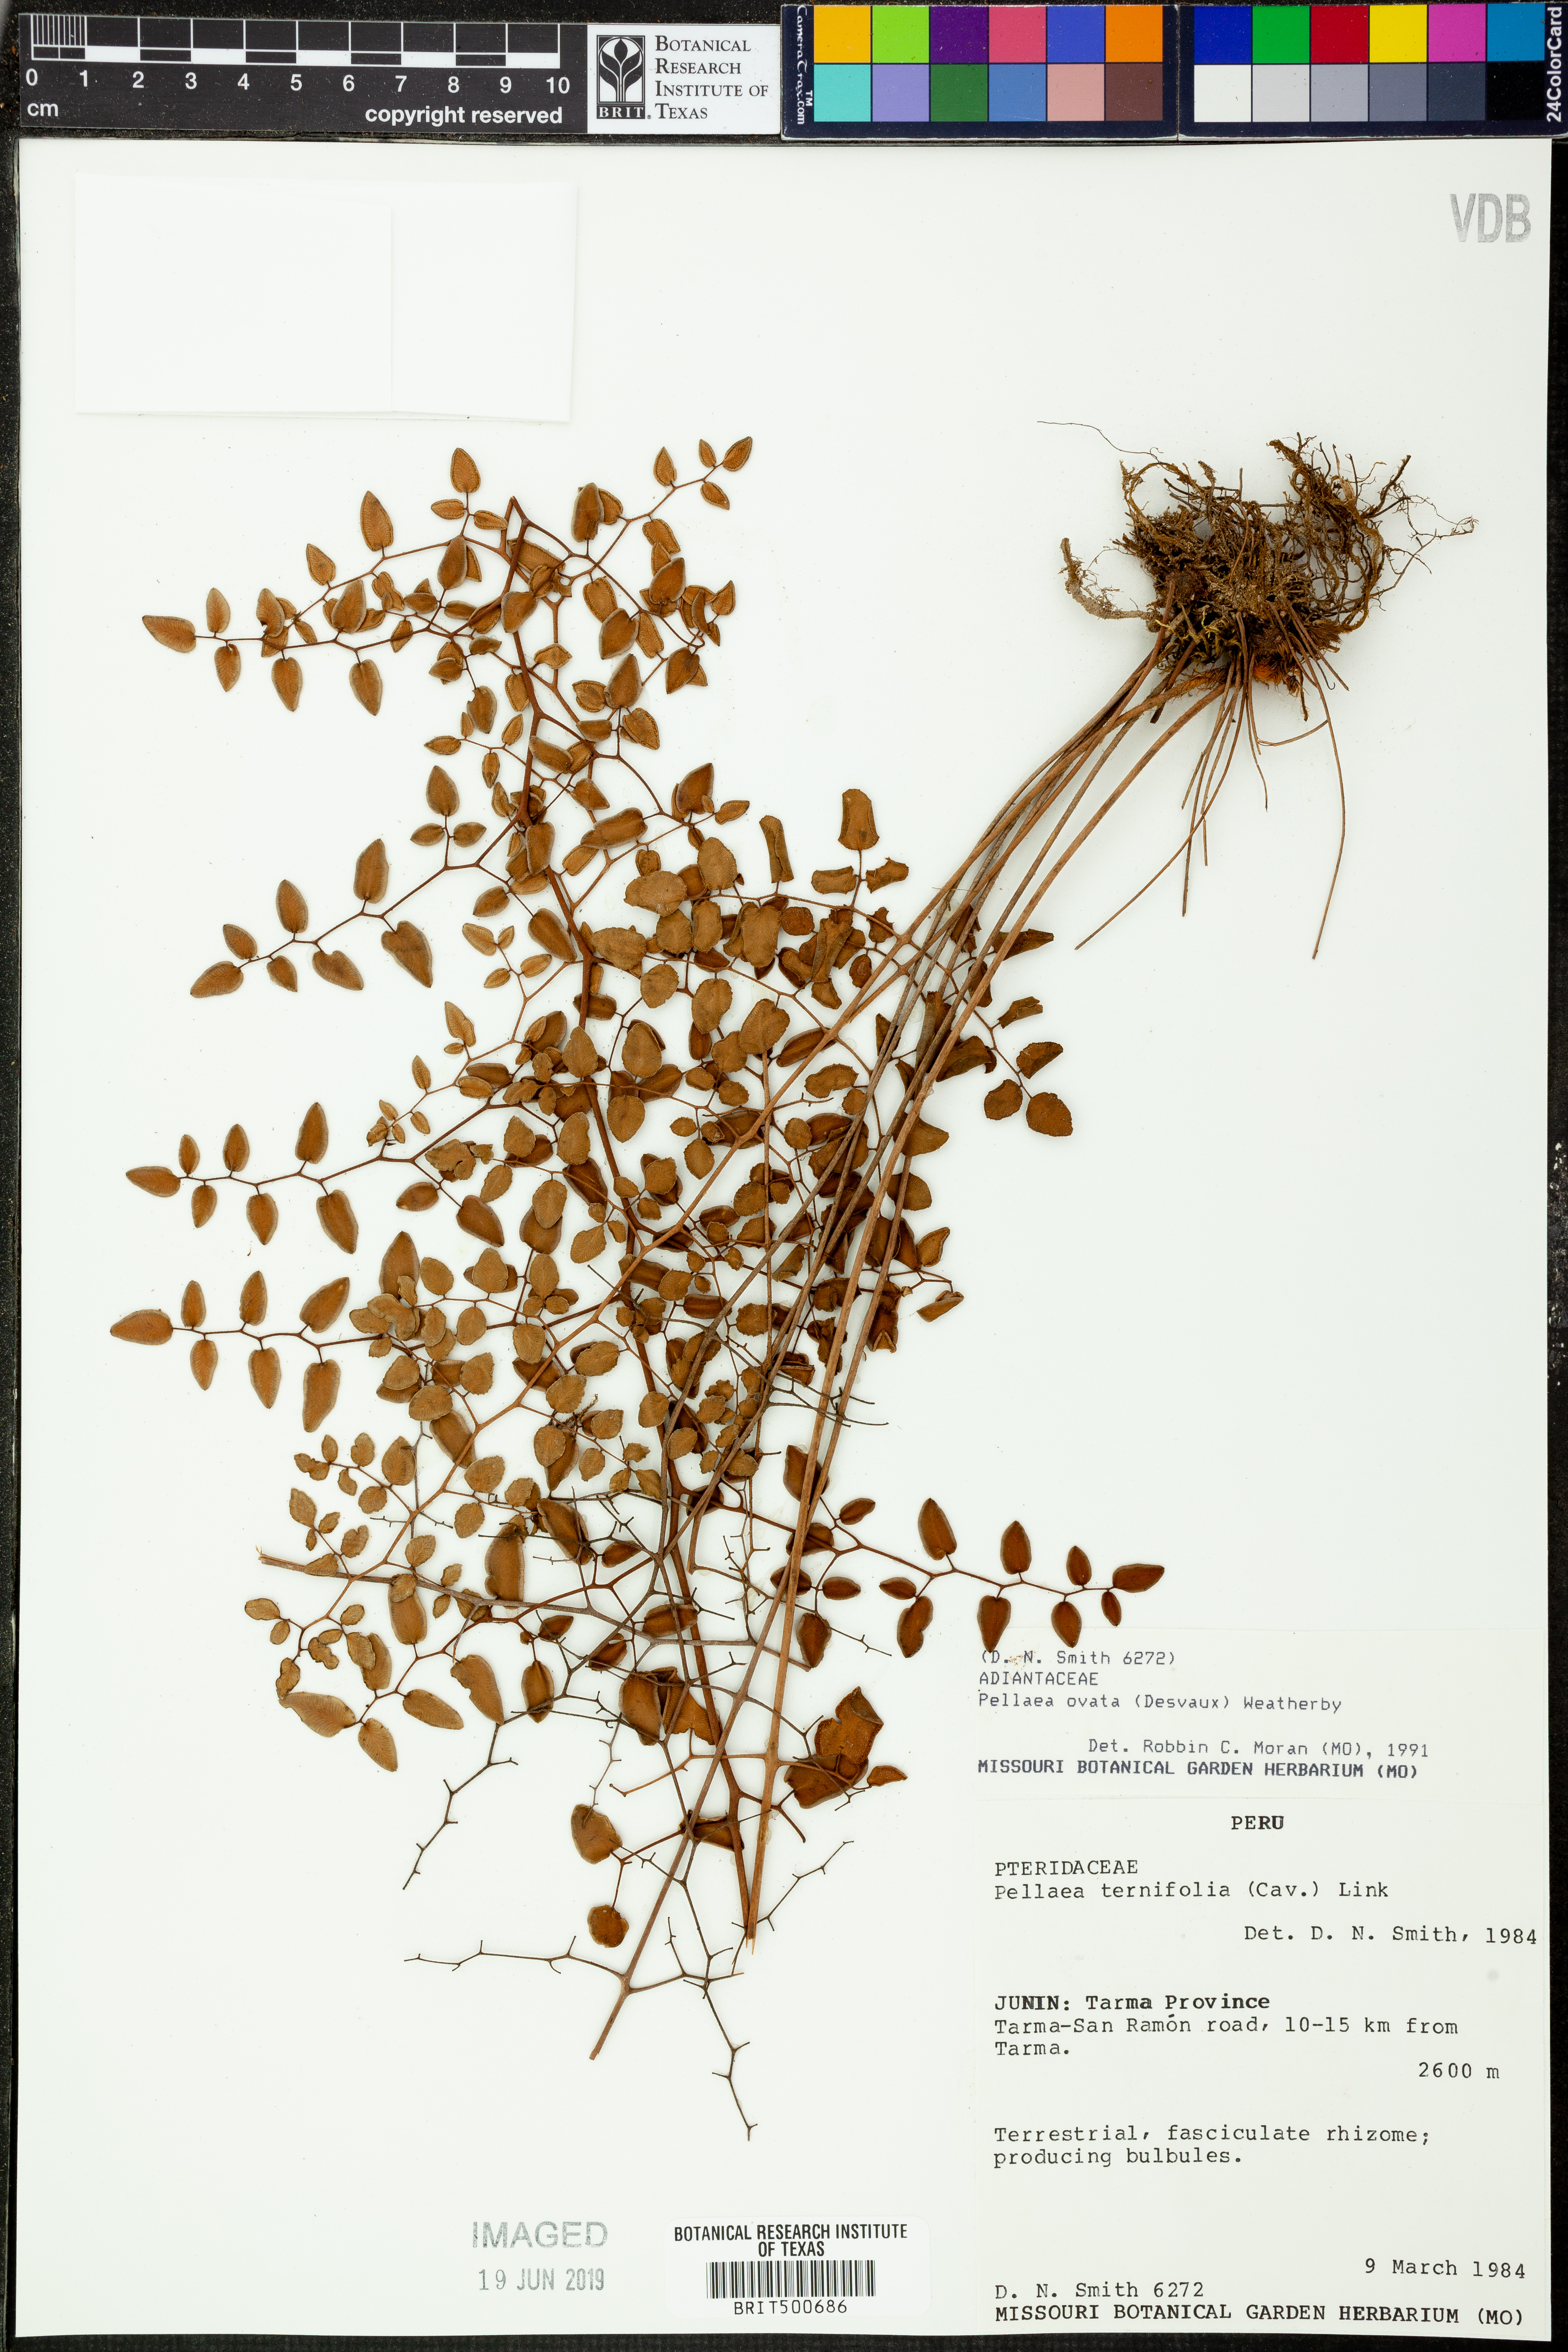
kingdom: Plantae
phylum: Tracheophyta
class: Polypodiopsida
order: Polypodiales
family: Pteridaceae
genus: Pellaea
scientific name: Pellaea ovata
